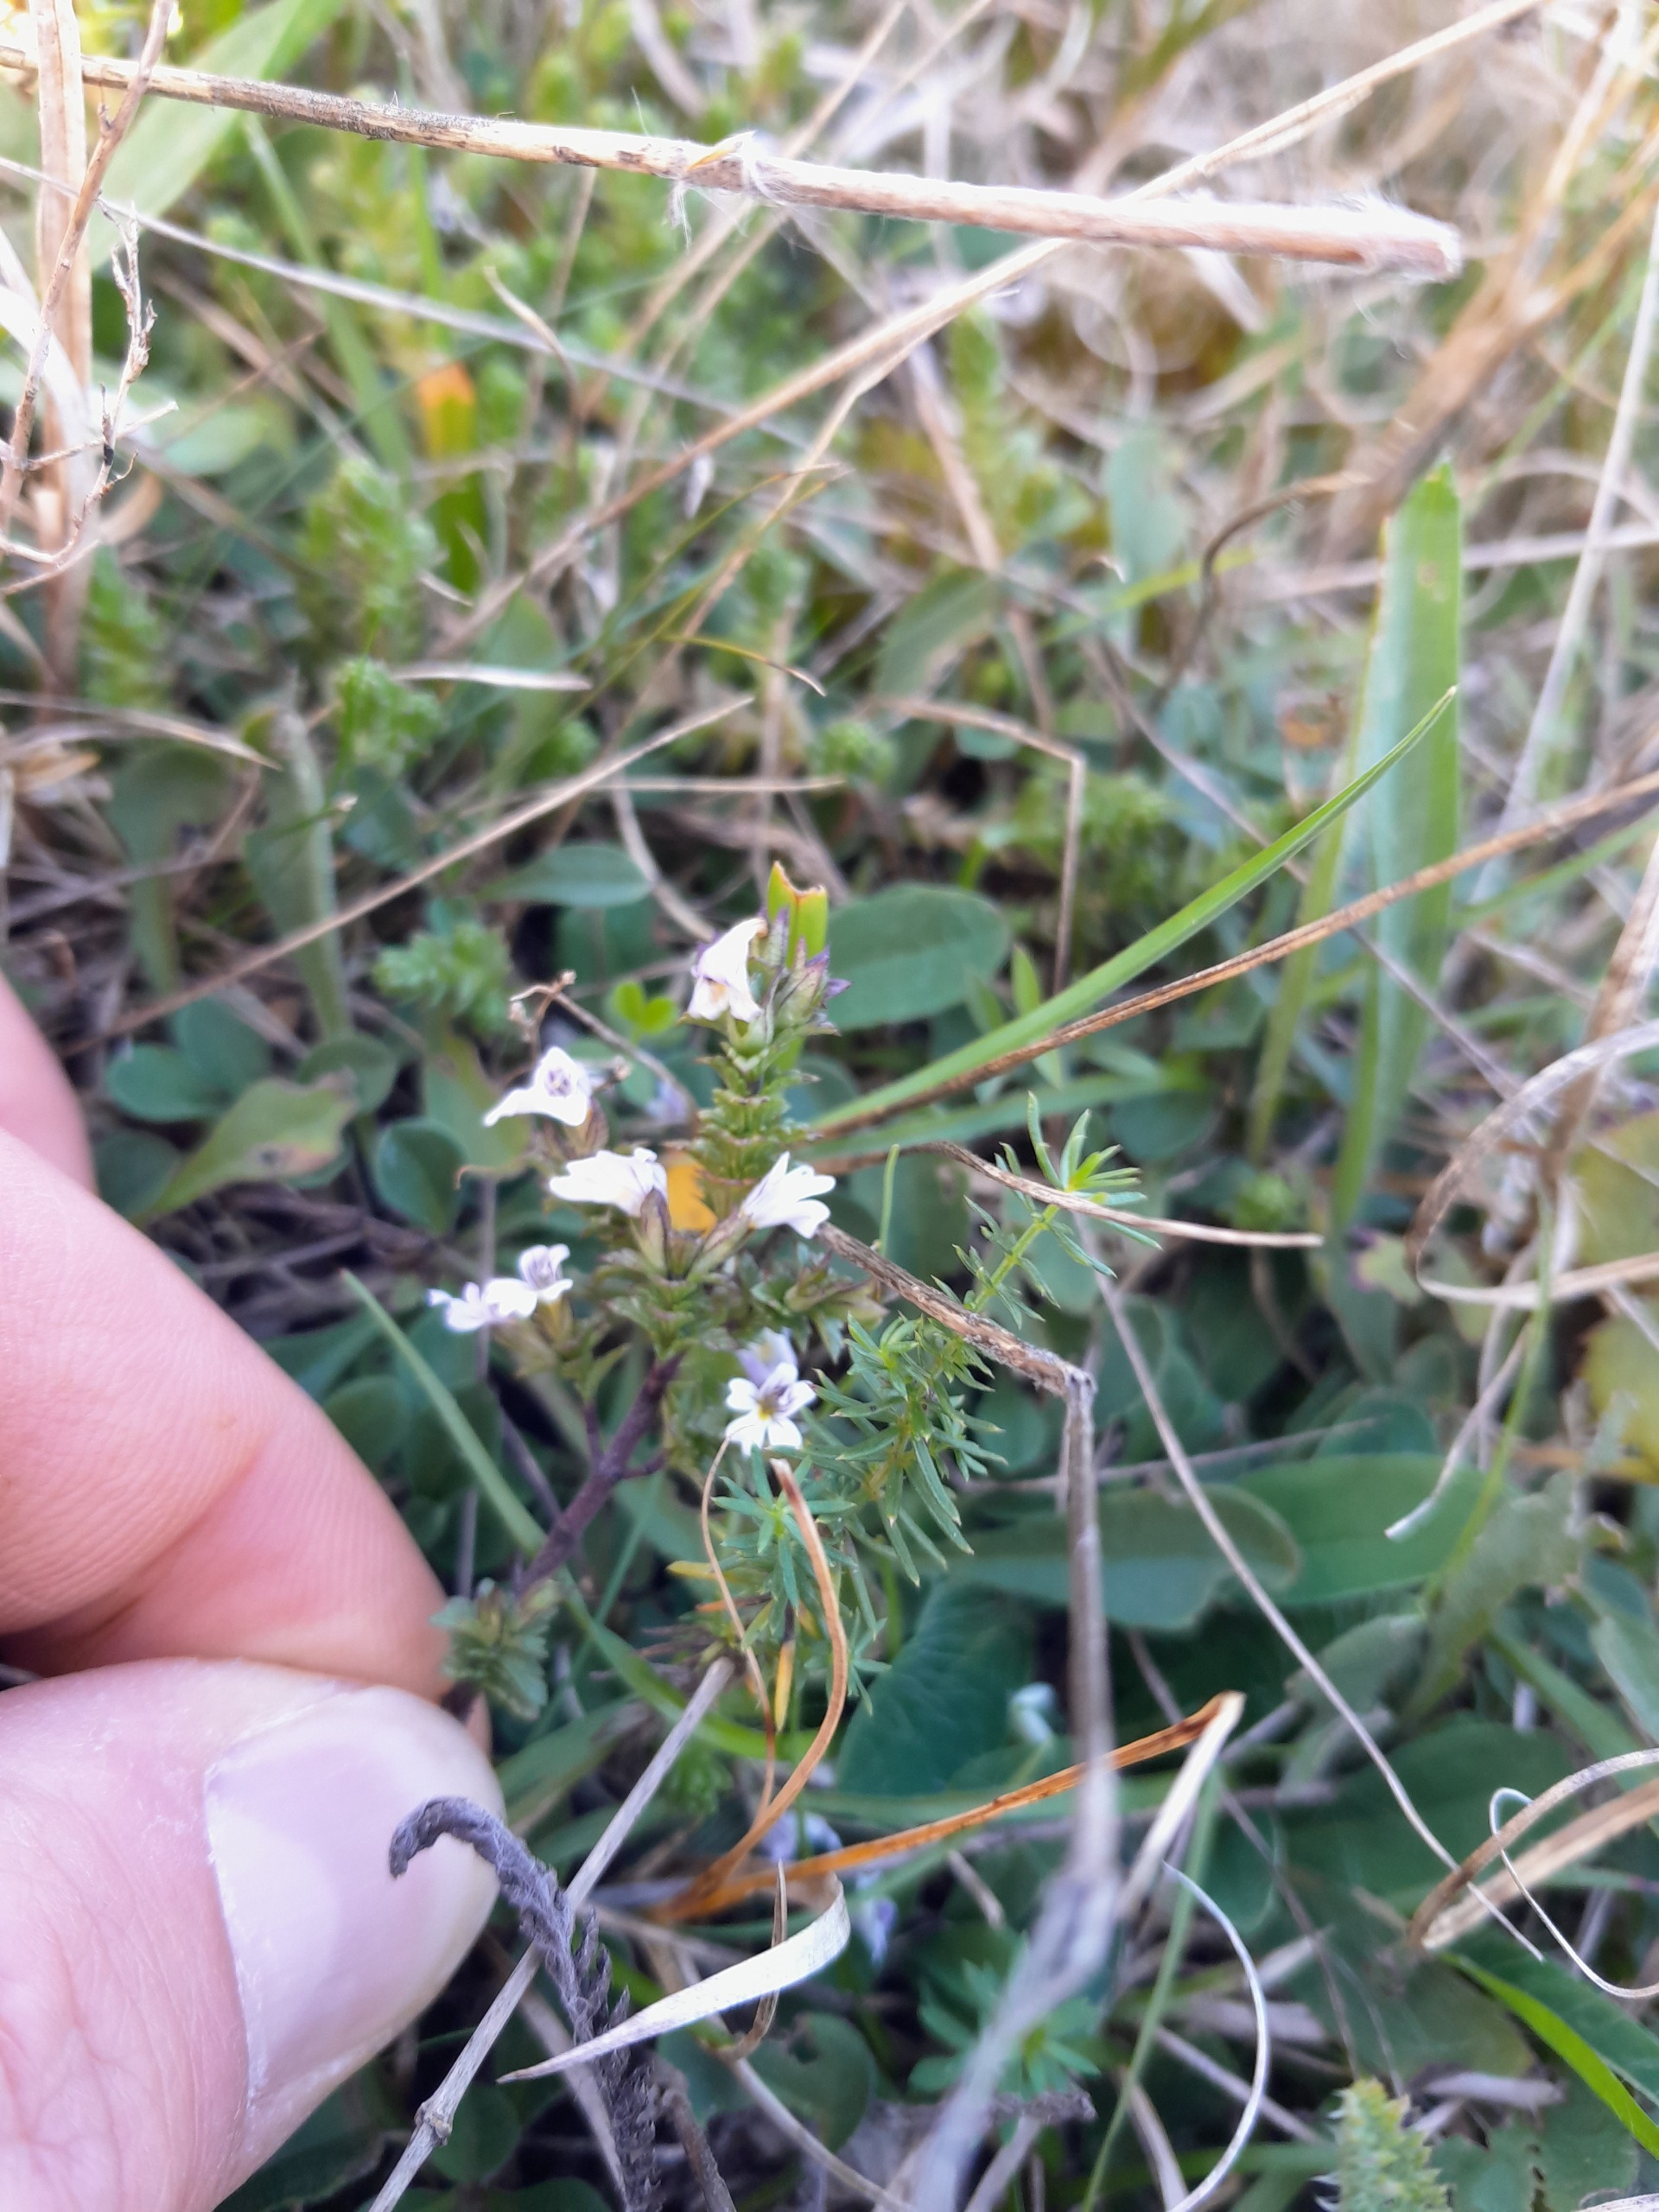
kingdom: Plantae
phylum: Tracheophyta
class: Magnoliopsida
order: Lamiales
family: Orobanchaceae
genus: Euphrasia
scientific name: Euphrasia stricta
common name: Spids øjentrøst
